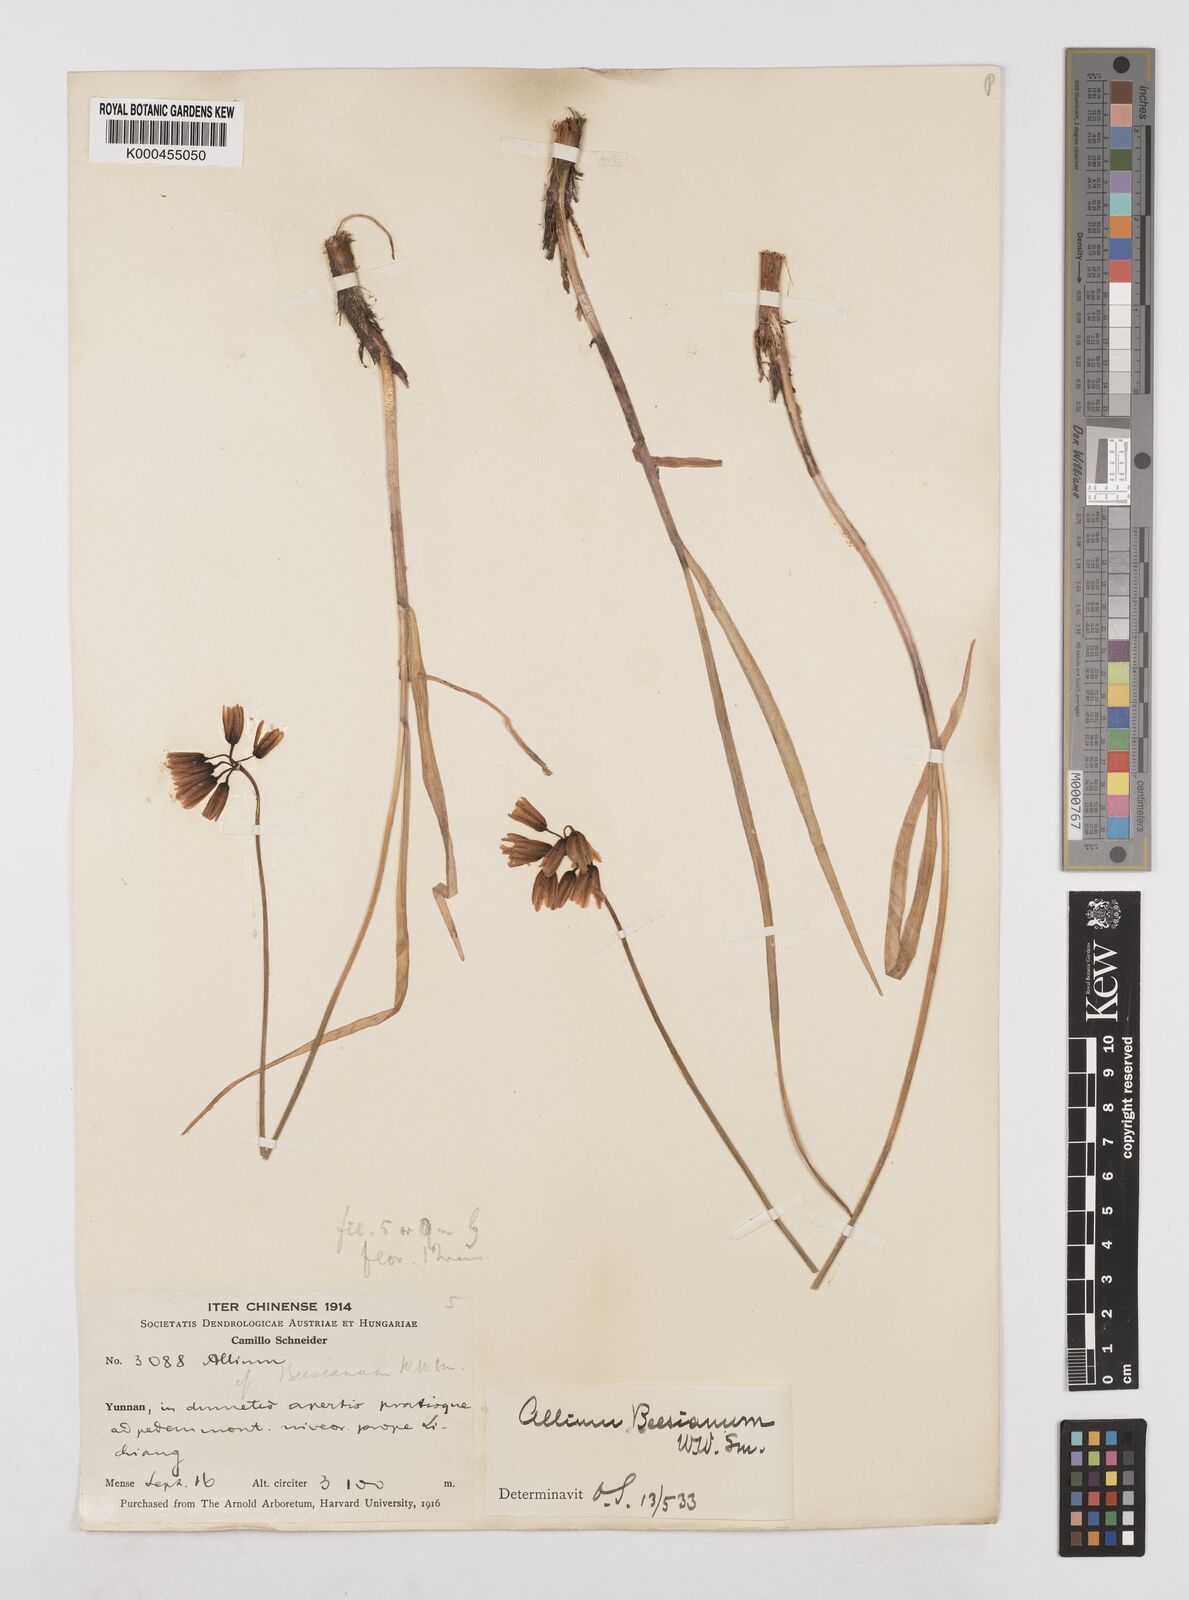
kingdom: Plantae
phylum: Tracheophyta
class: Liliopsida
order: Asparagales
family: Amaryllidaceae
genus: Allium
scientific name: Allium beesianum
